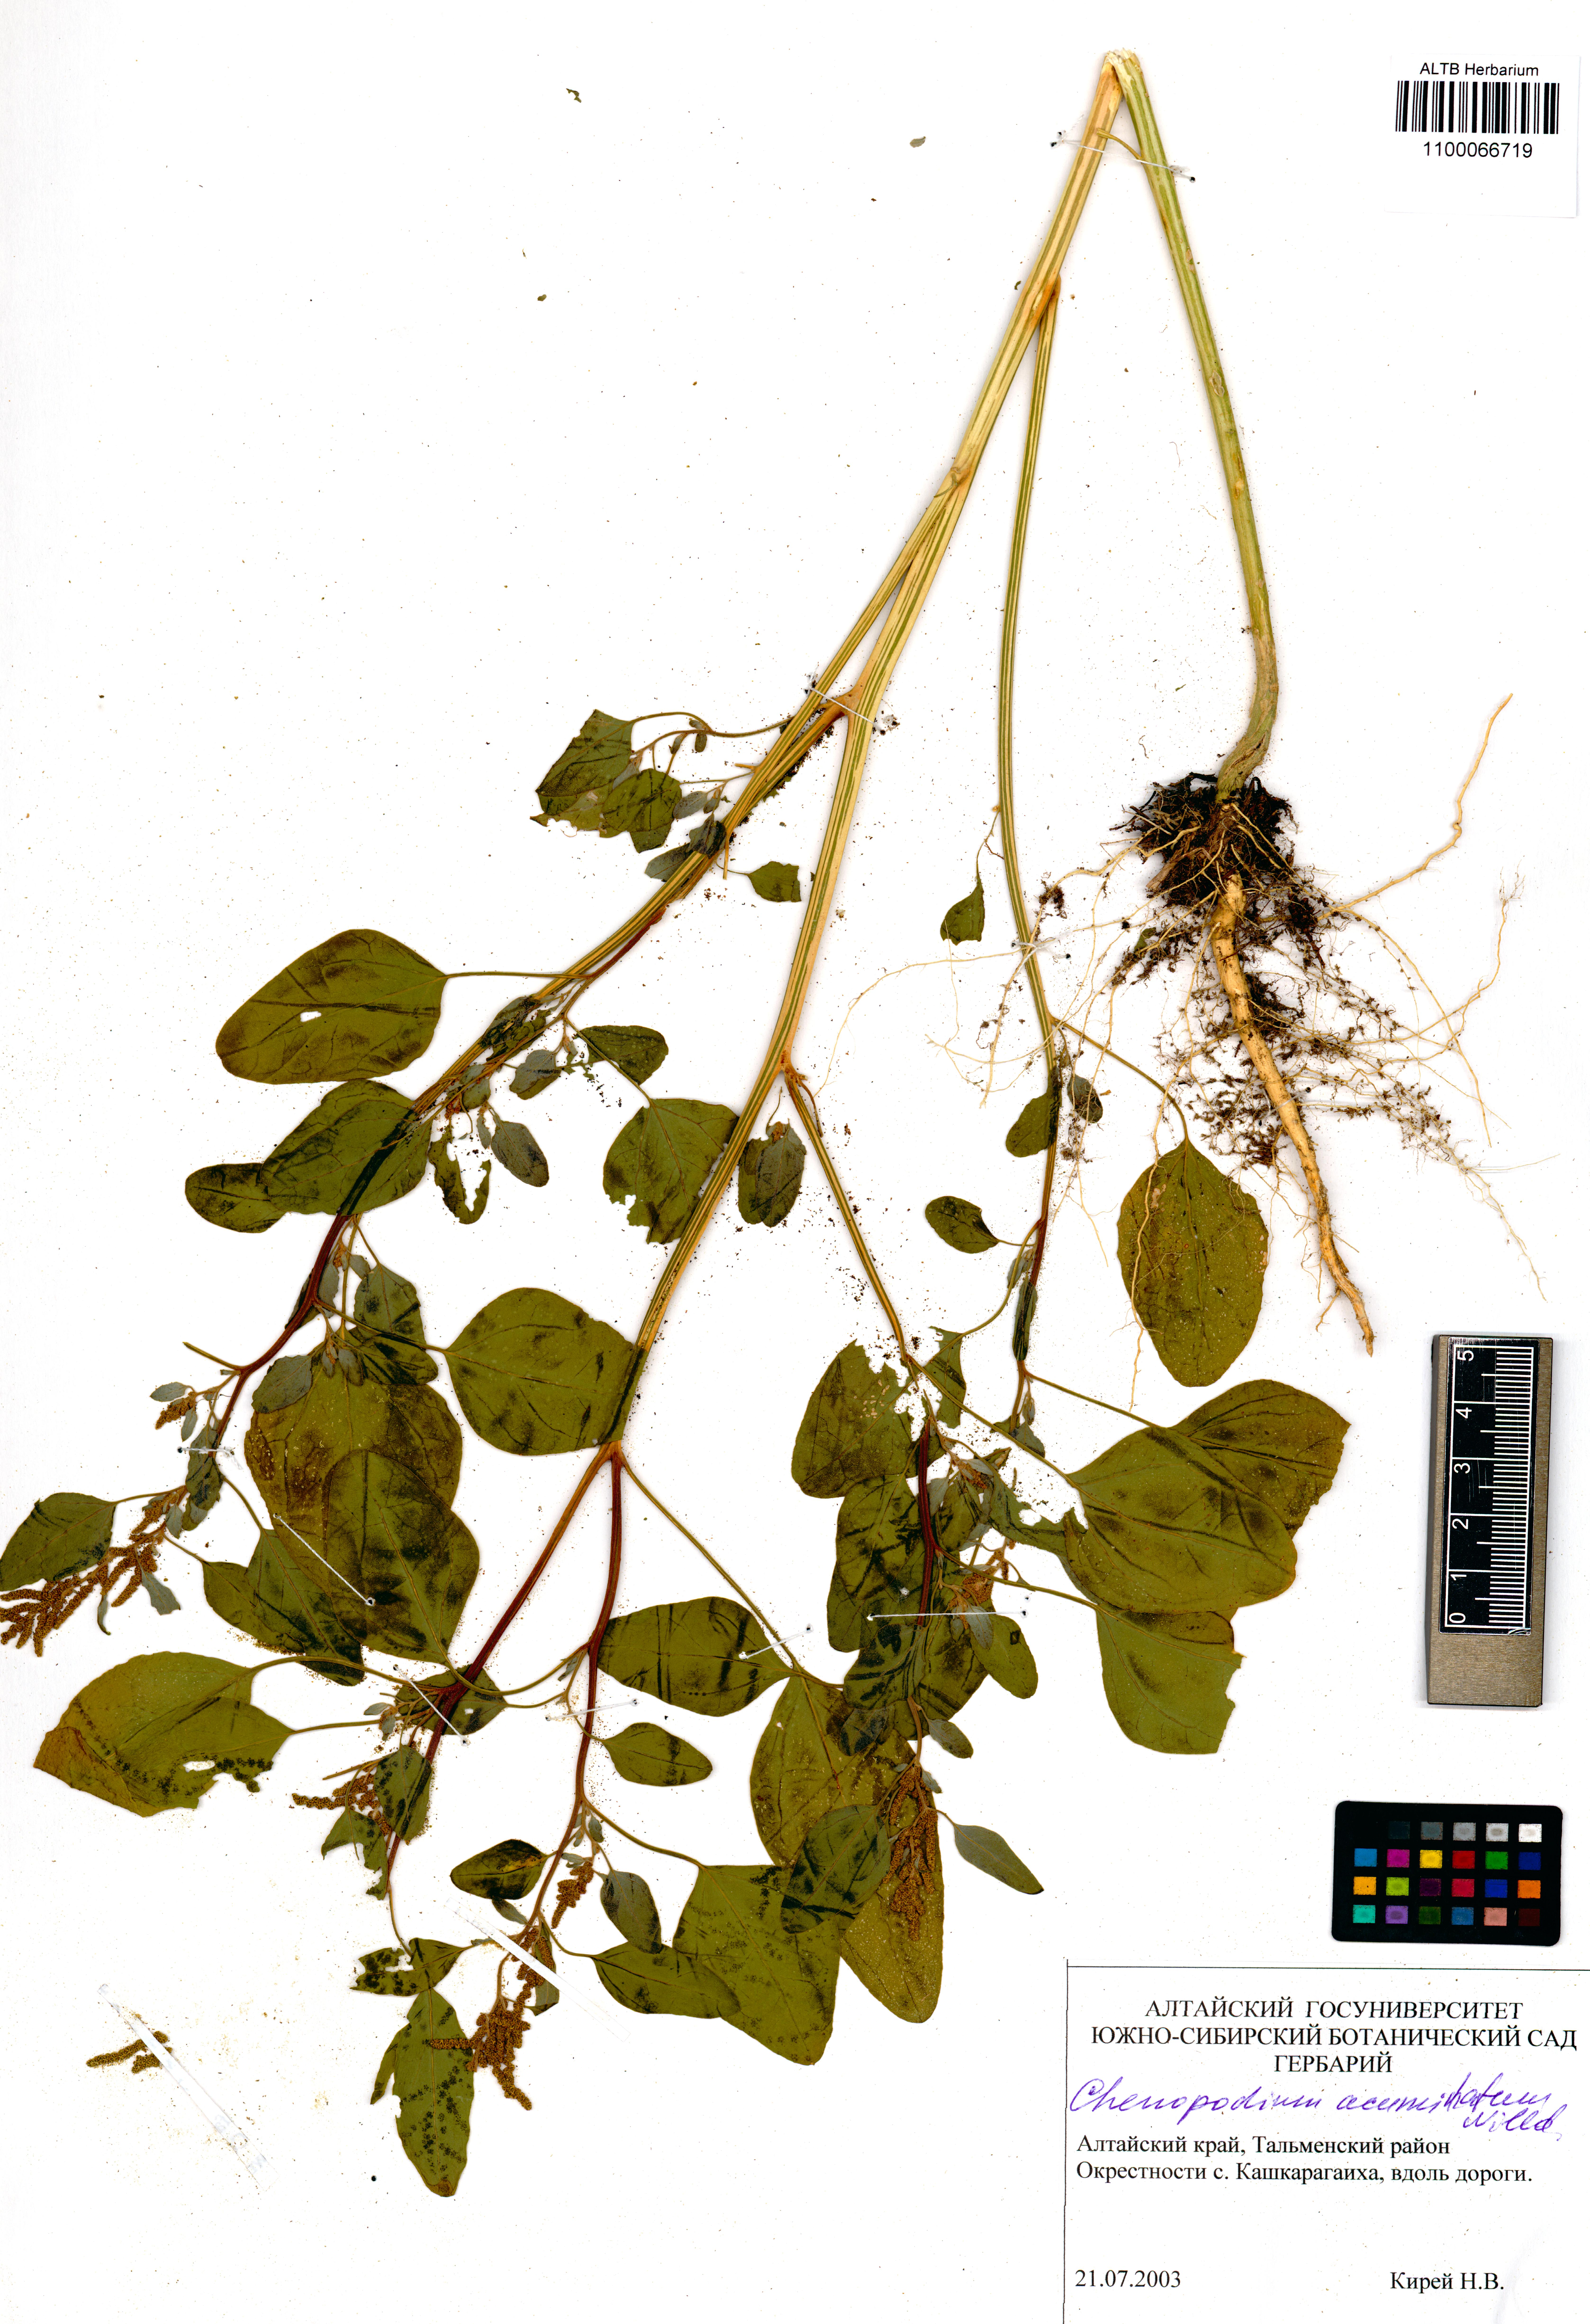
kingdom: Plantae
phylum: Tracheophyta
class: Magnoliopsida
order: Caryophyllales
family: Amaranthaceae
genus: Chenopodium
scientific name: Chenopodium acuminatum
